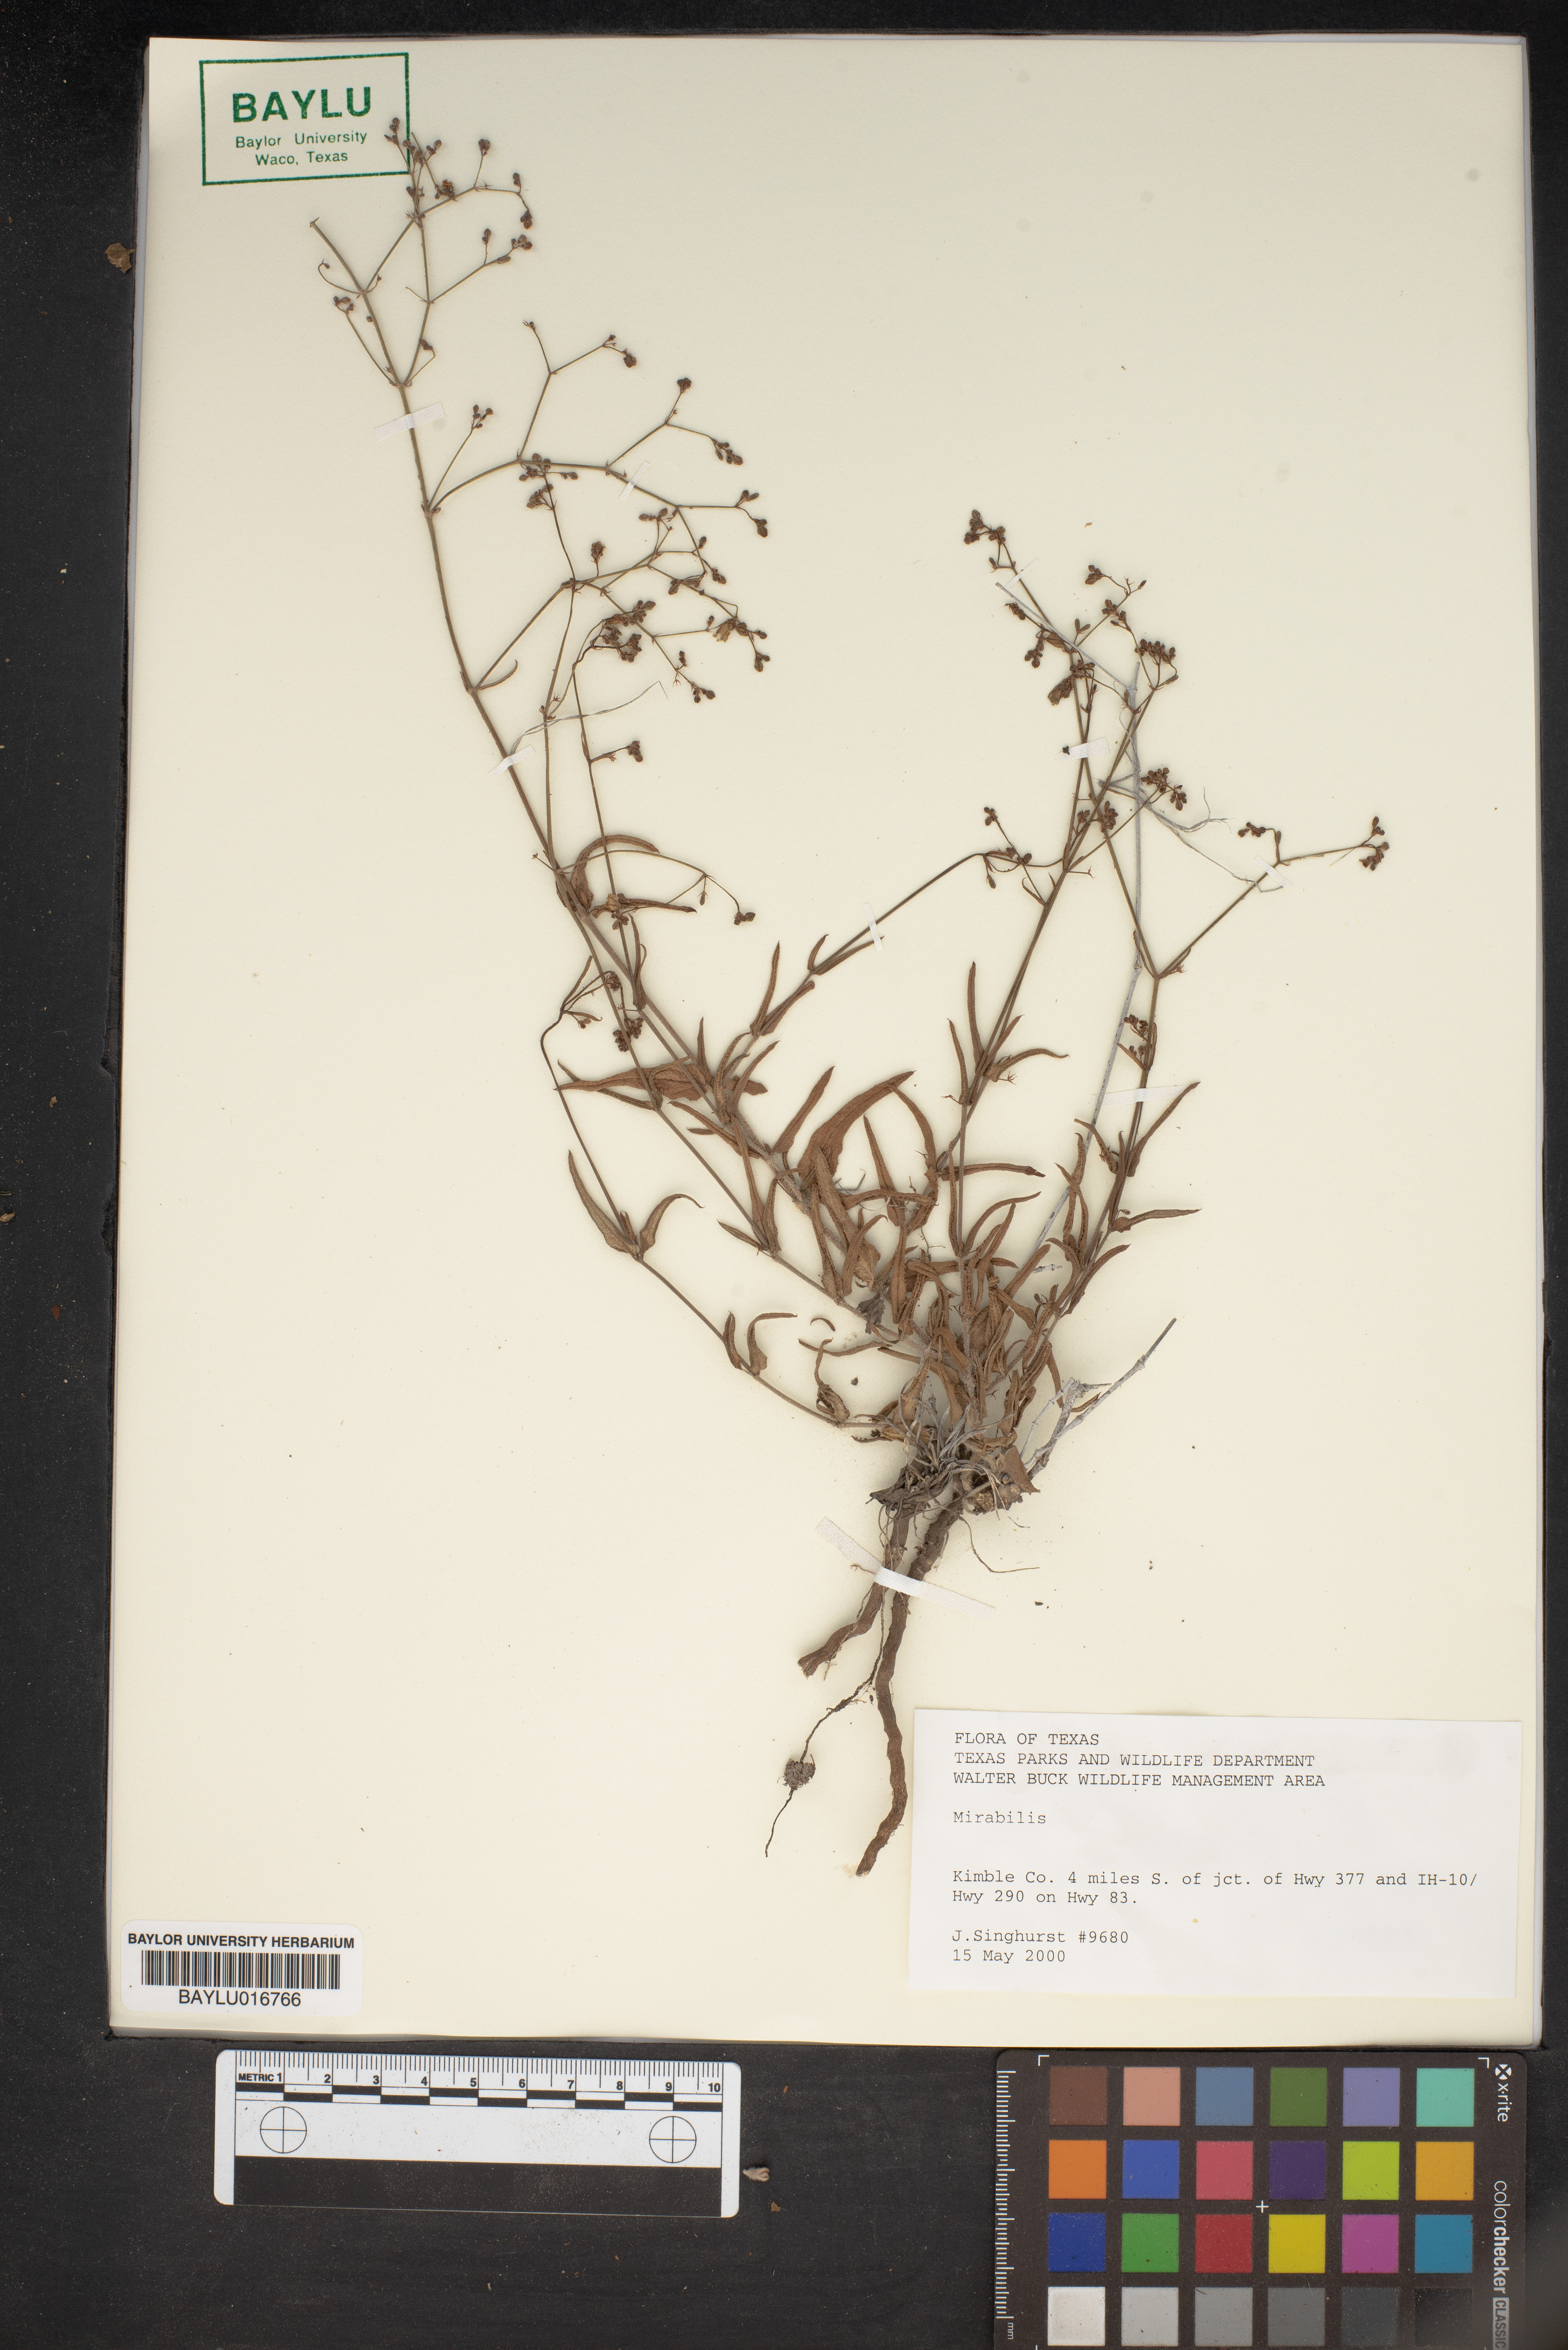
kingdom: Plantae
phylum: Tracheophyta
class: Magnoliopsida
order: Caryophyllales
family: Nyctaginaceae
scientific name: Nyctaginaceae
